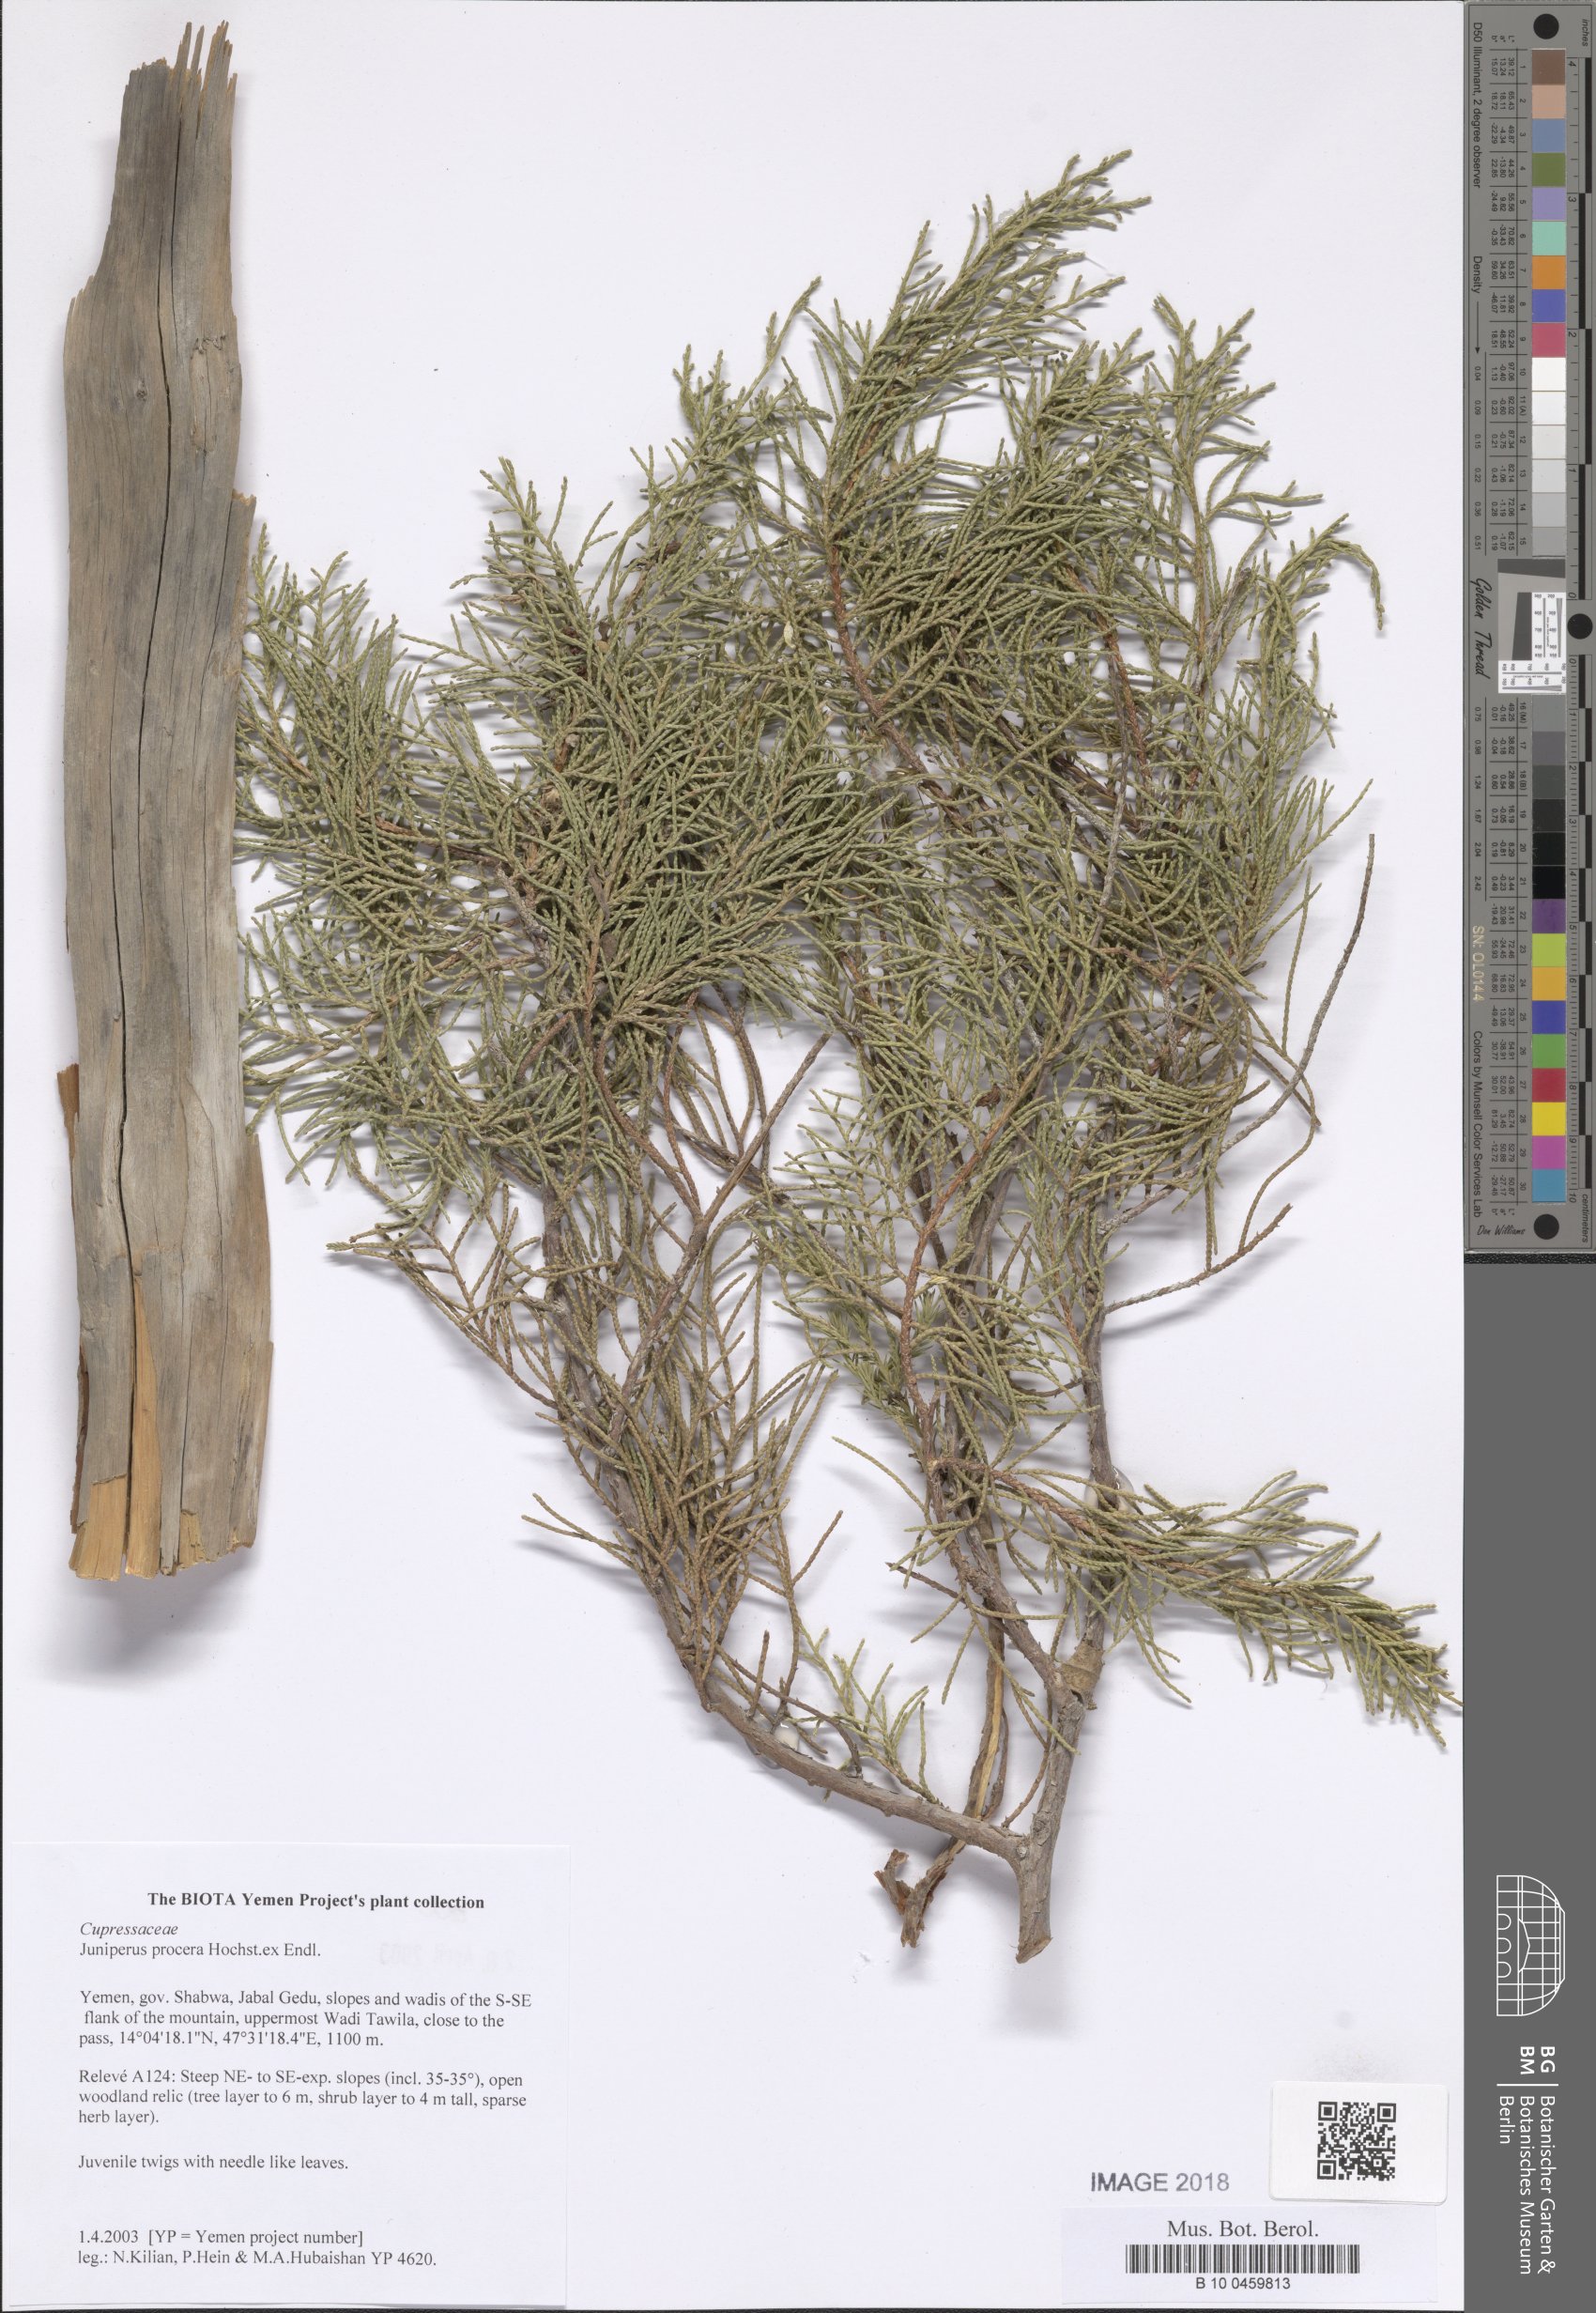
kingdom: Plantae
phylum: Tracheophyta
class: Pinopsida
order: Pinales
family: Cupressaceae
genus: Juniperus
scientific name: Juniperus procera
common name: African juniper
